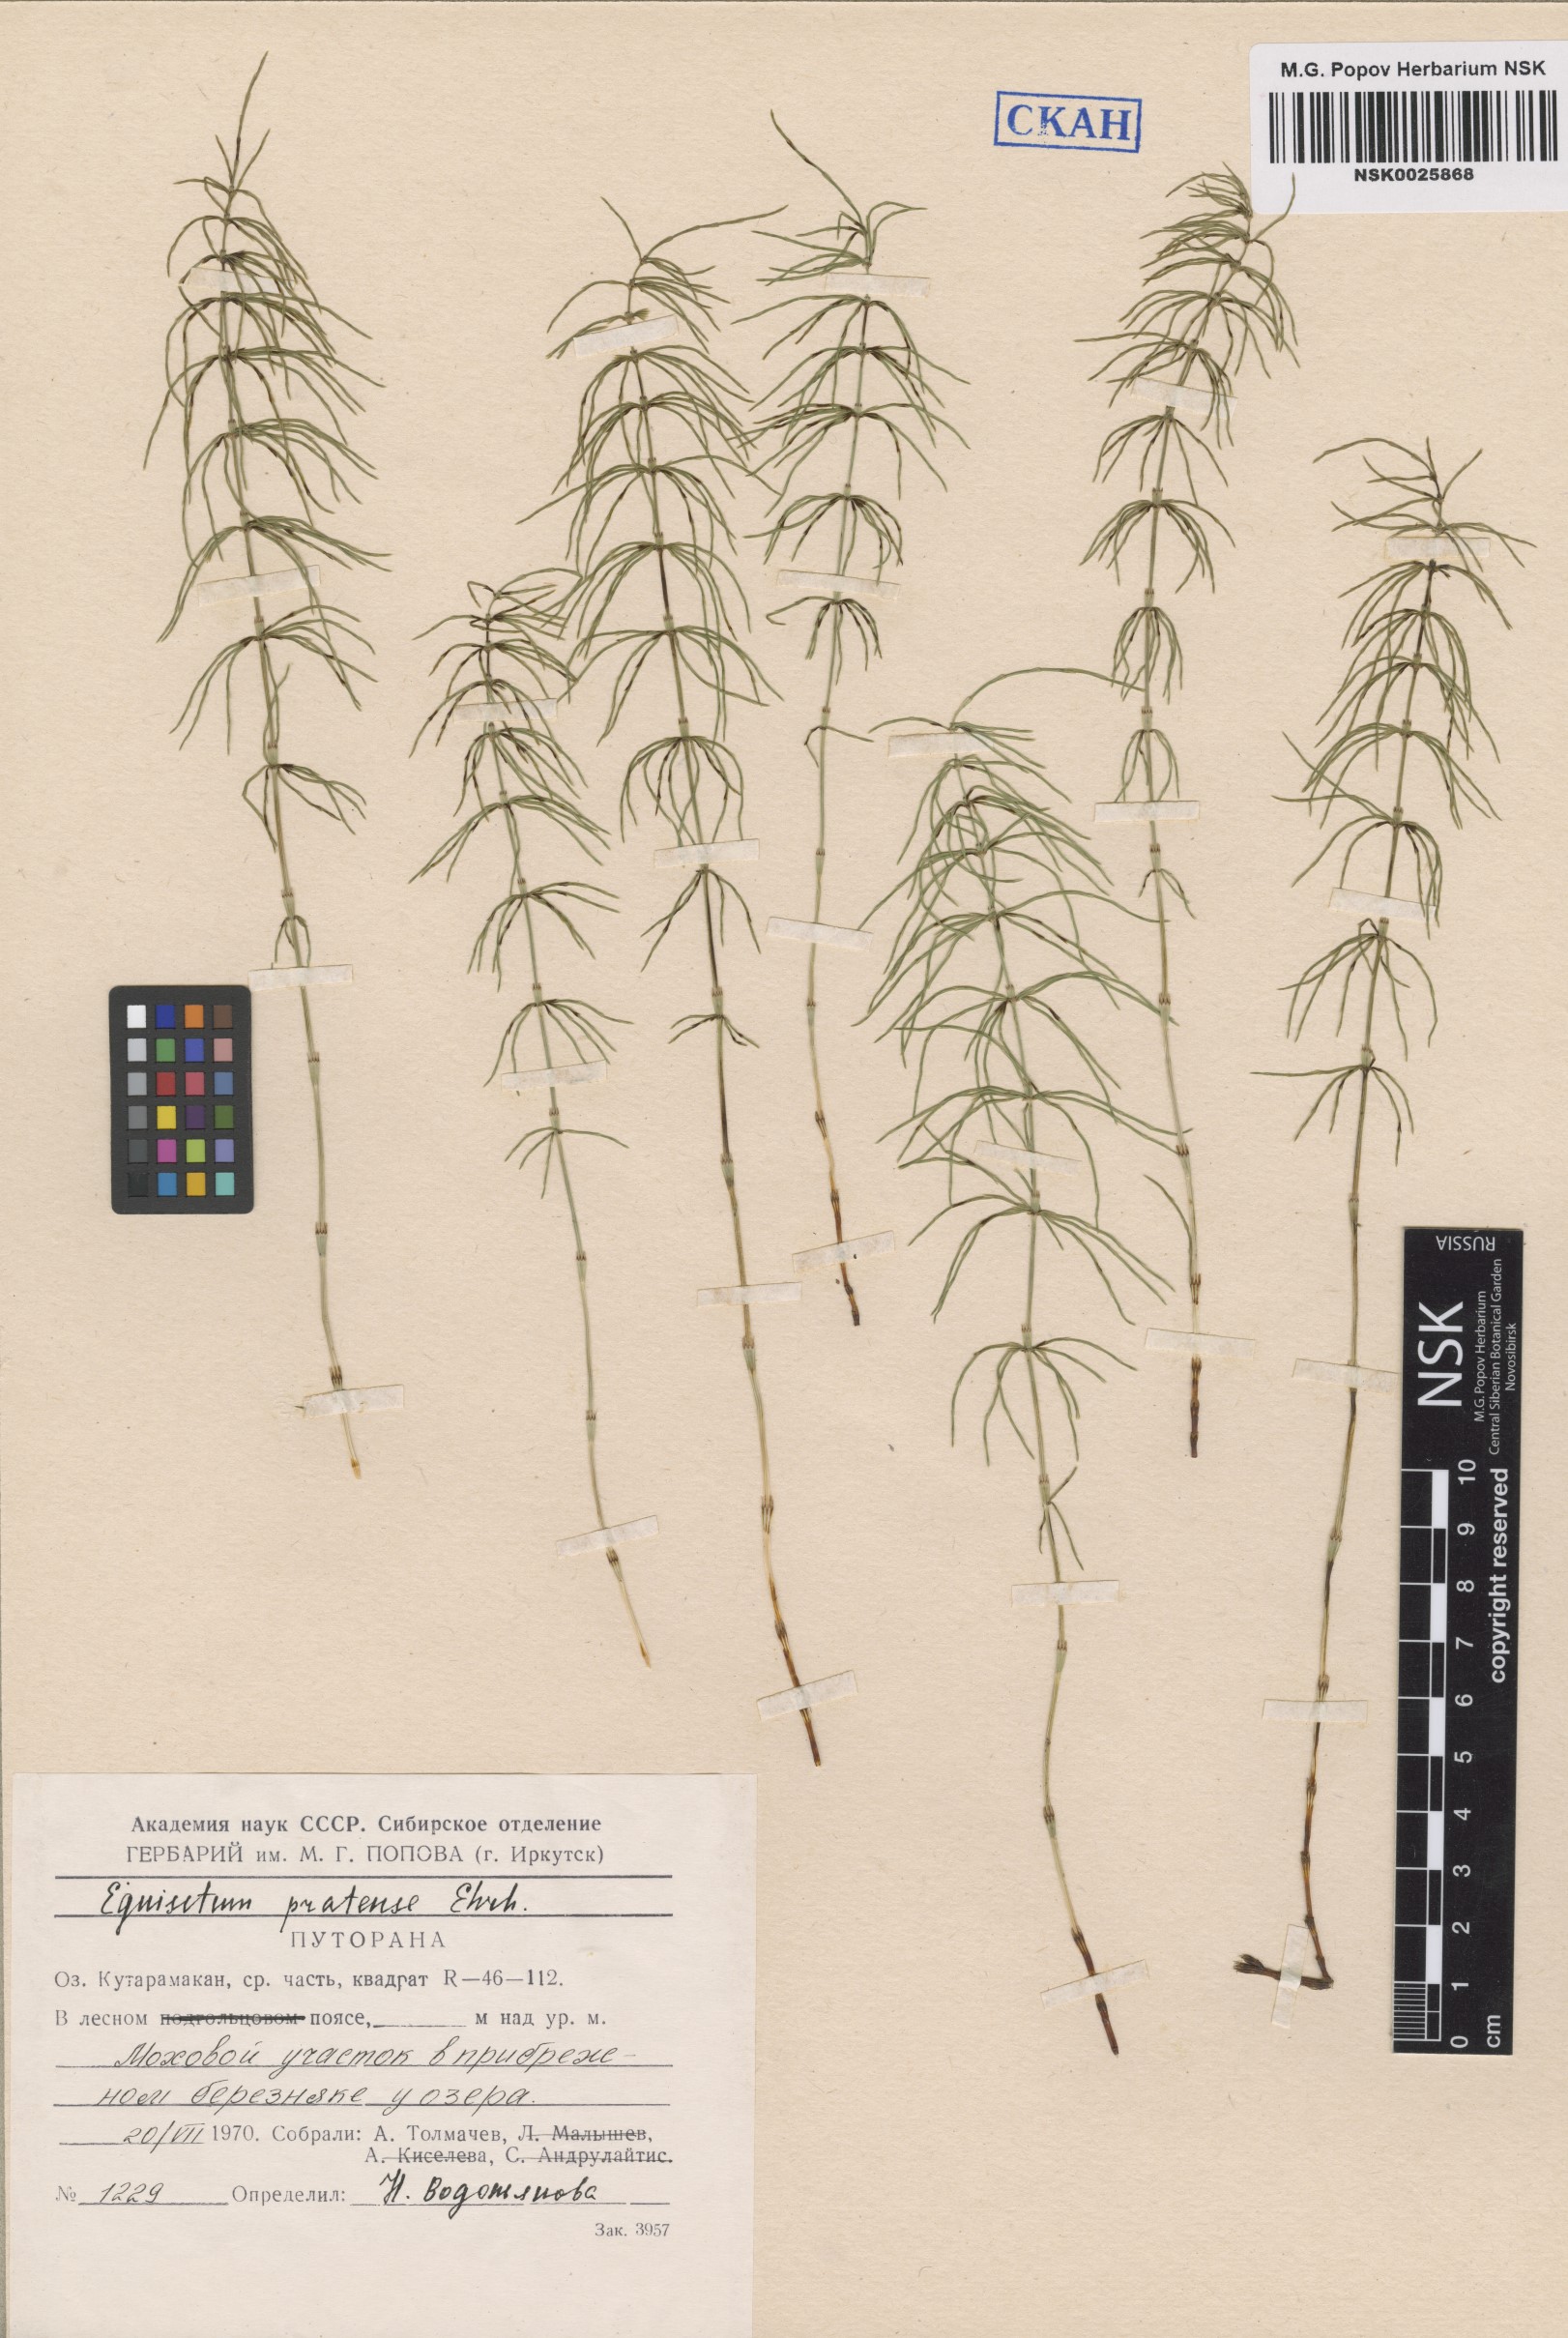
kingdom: Plantae
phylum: Tracheophyta
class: Polypodiopsida
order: Equisetales
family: Equisetaceae
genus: Equisetum
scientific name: Equisetum pratense
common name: Meadow horsetail
